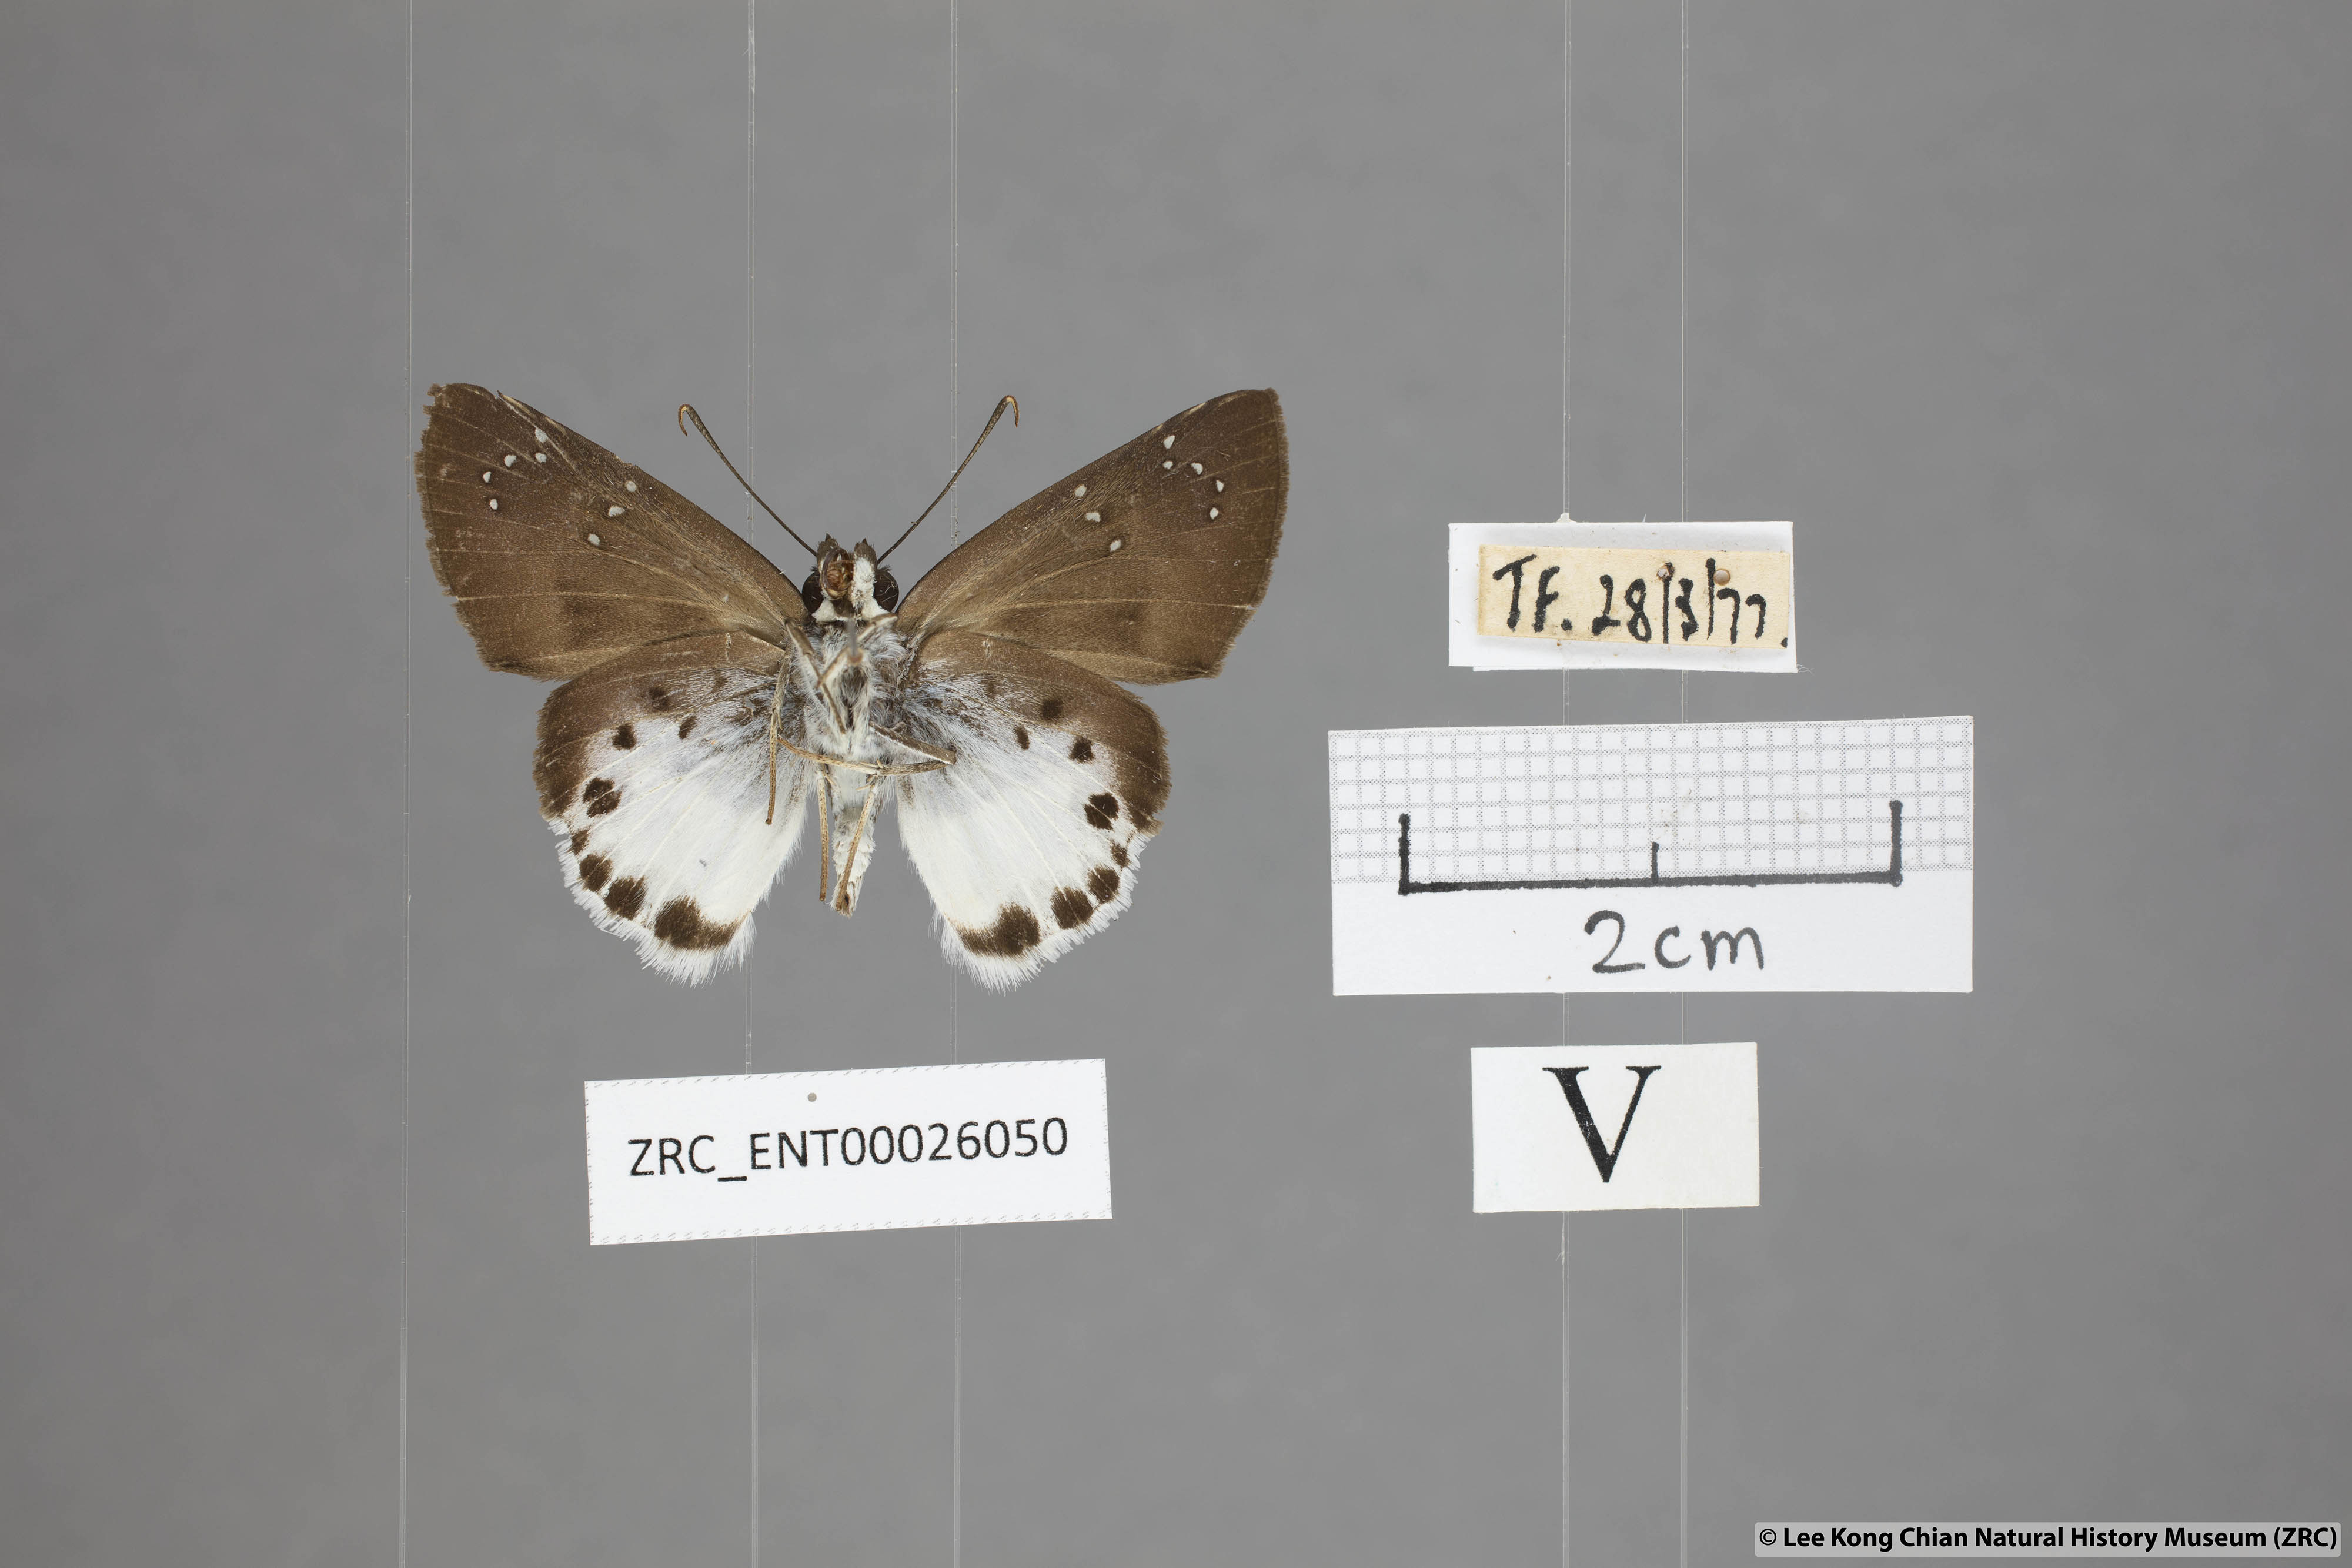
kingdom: Animalia
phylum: Arthropoda
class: Insecta
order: Lepidoptera
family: Hesperiidae
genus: Tagiades
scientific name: Tagiades litigiosa
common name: Water snow flat
